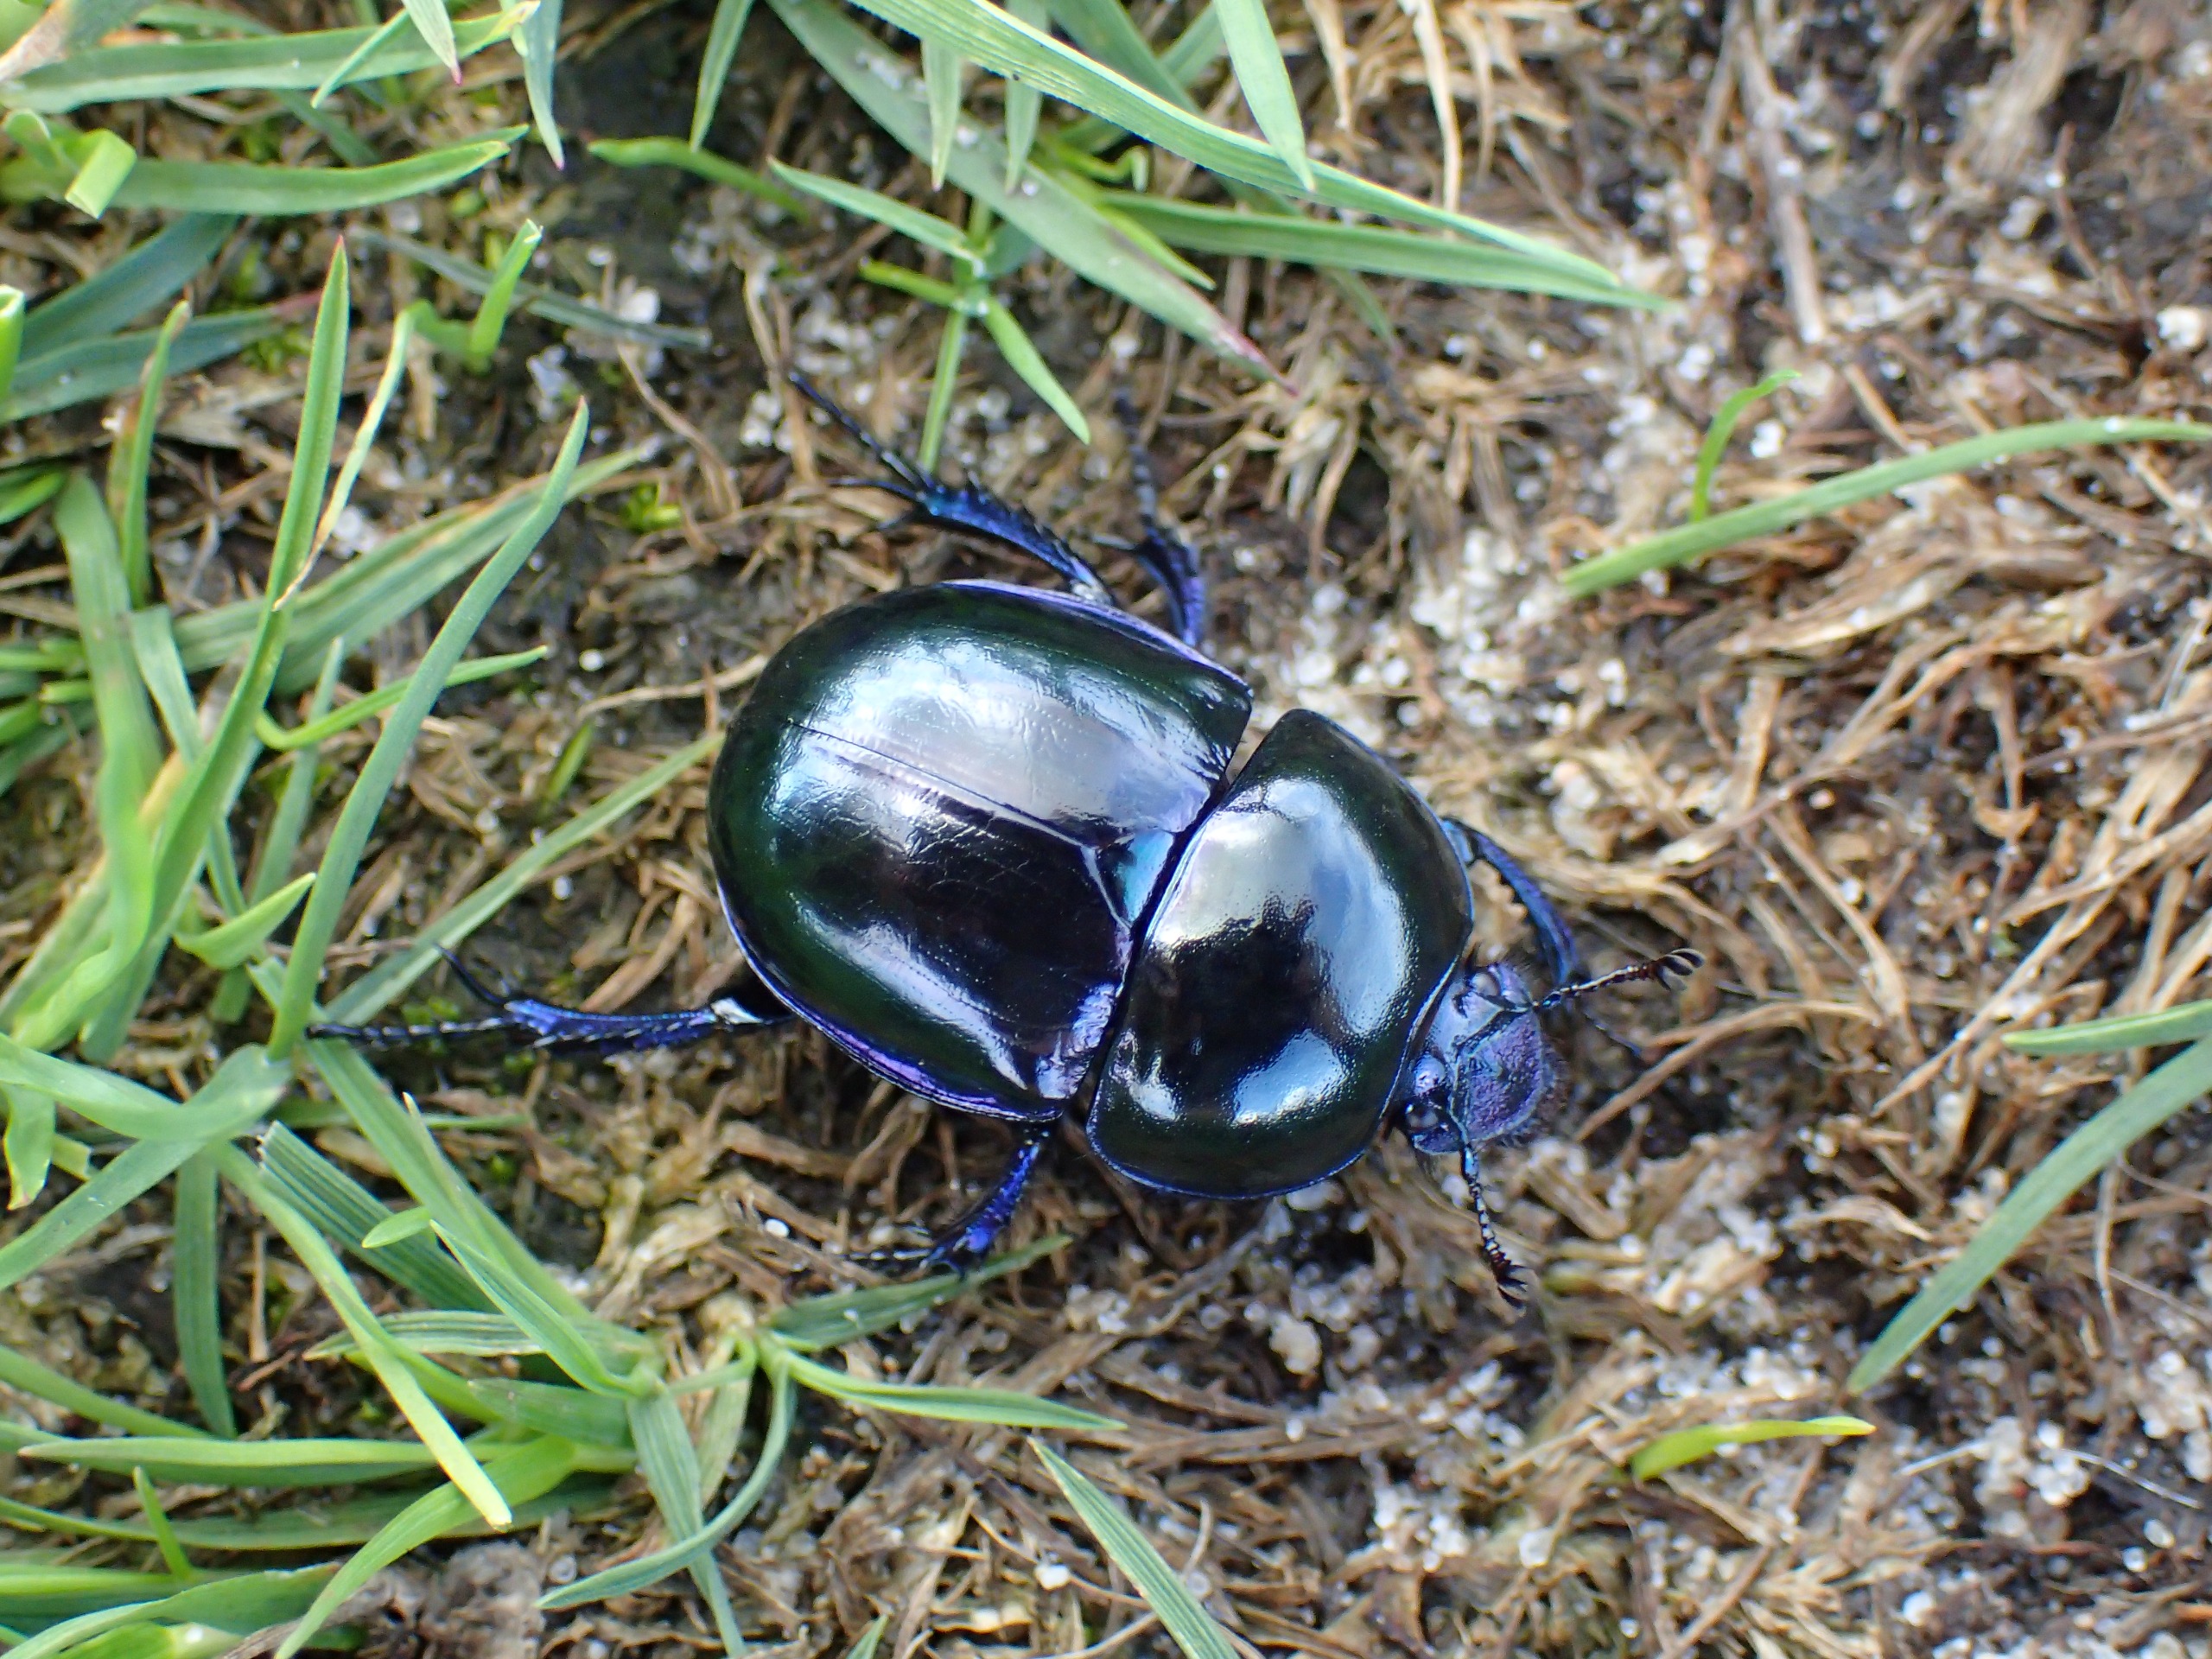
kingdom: Animalia
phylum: Arthropoda
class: Insecta
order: Coleoptera
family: Geotrupidae
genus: Trypocopris
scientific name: Trypocopris vernalis
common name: Glat skarnbasse
